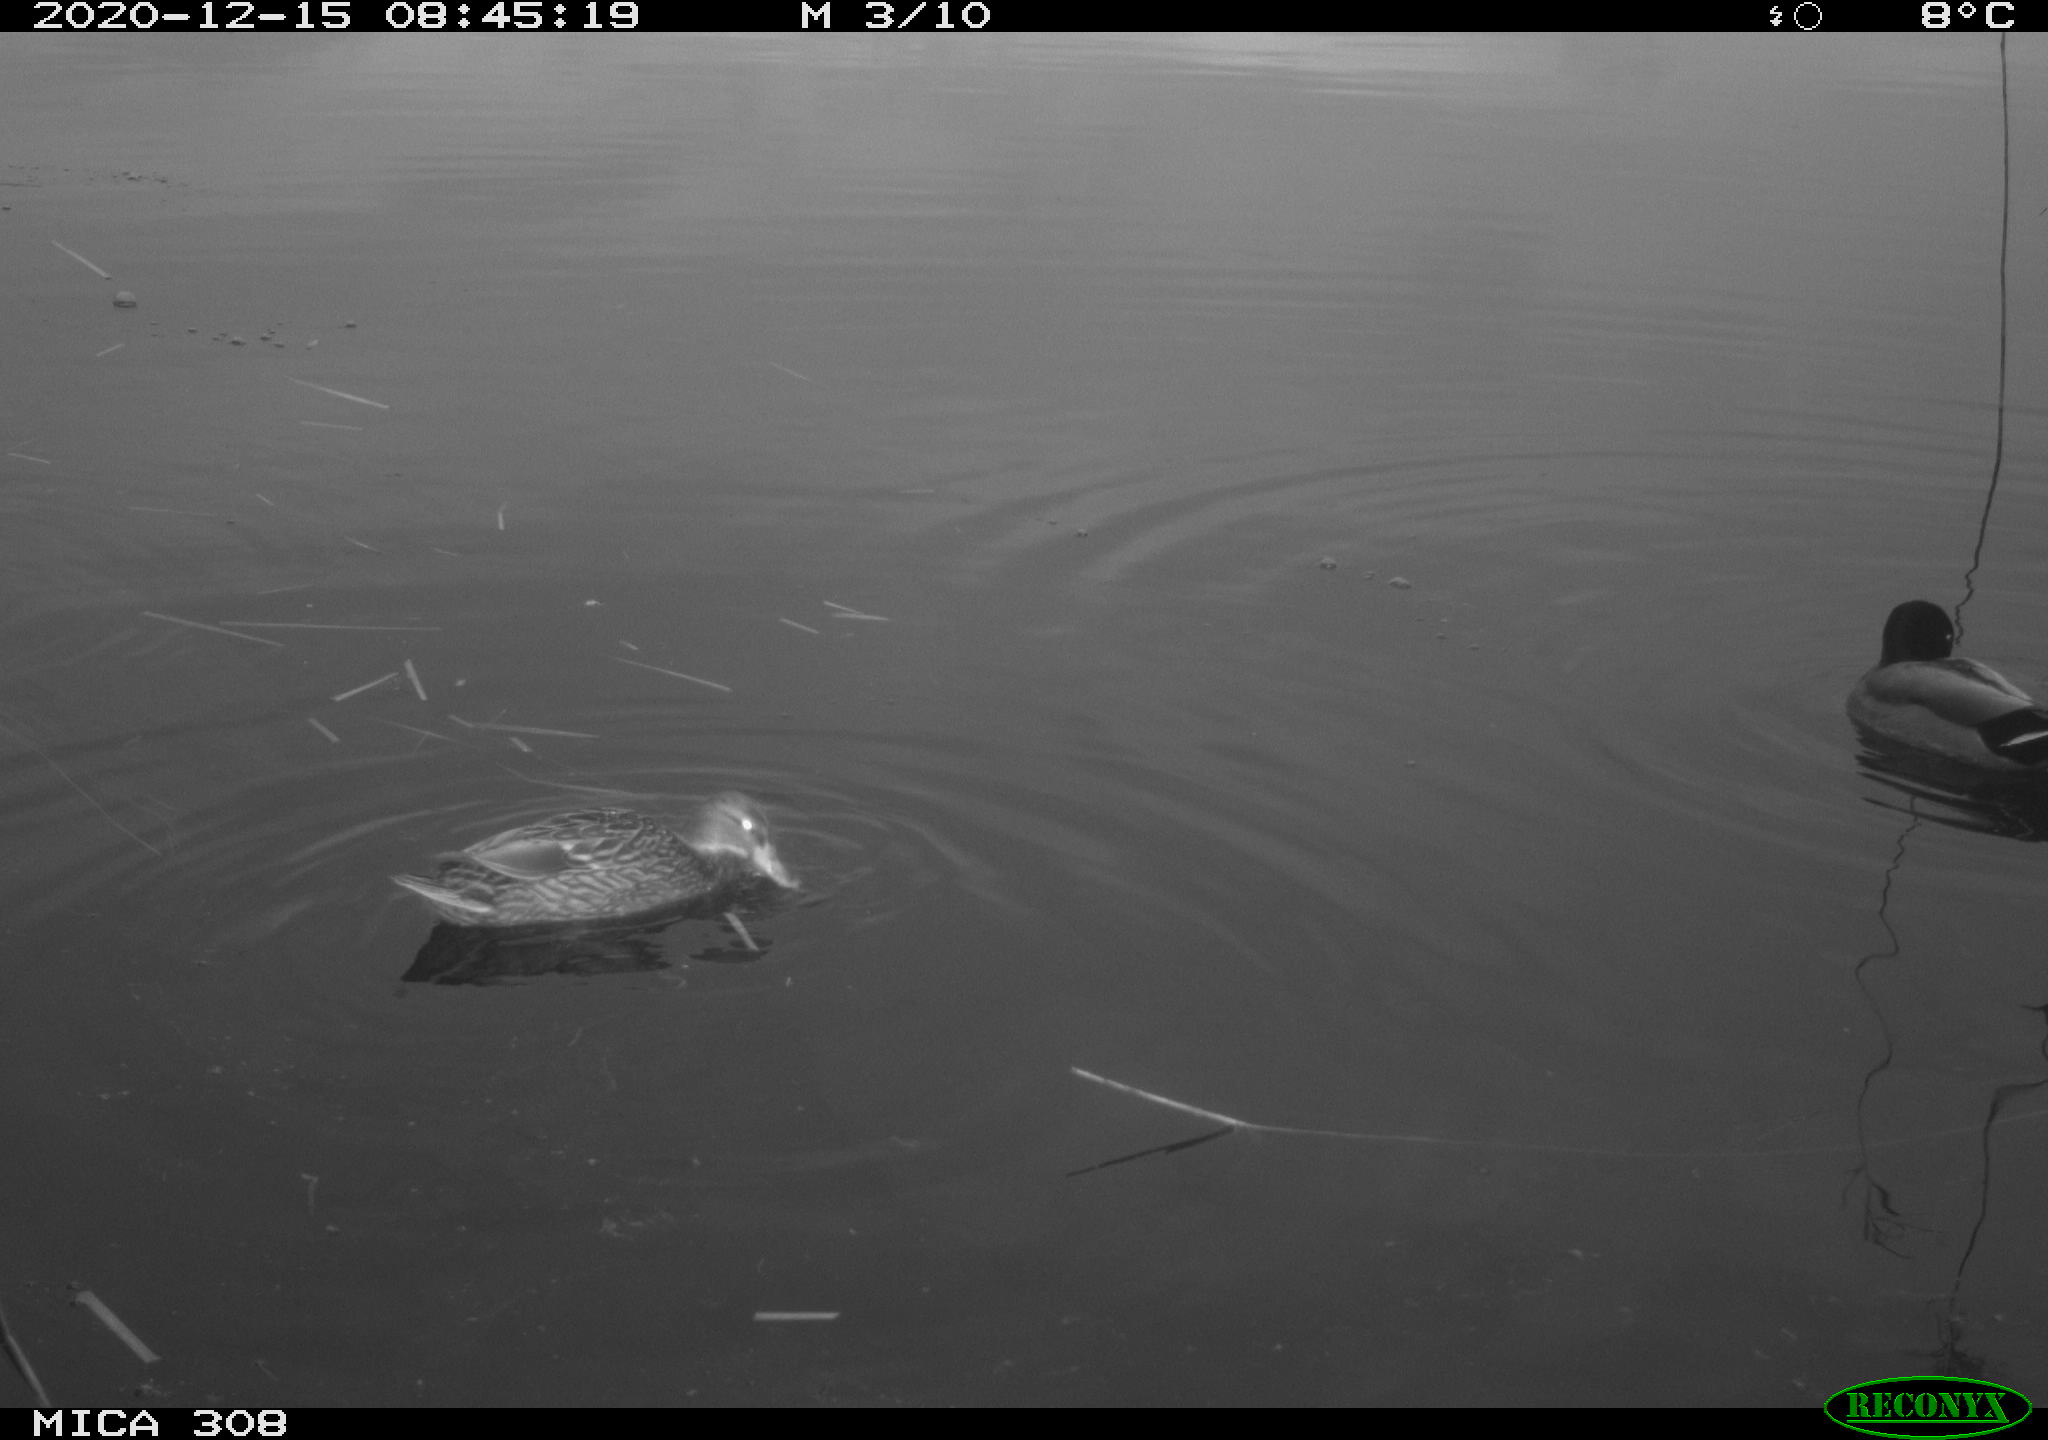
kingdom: Animalia
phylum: Chordata
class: Aves
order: Anseriformes
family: Anatidae
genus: Anas
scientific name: Anas platyrhynchos
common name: Mallard
